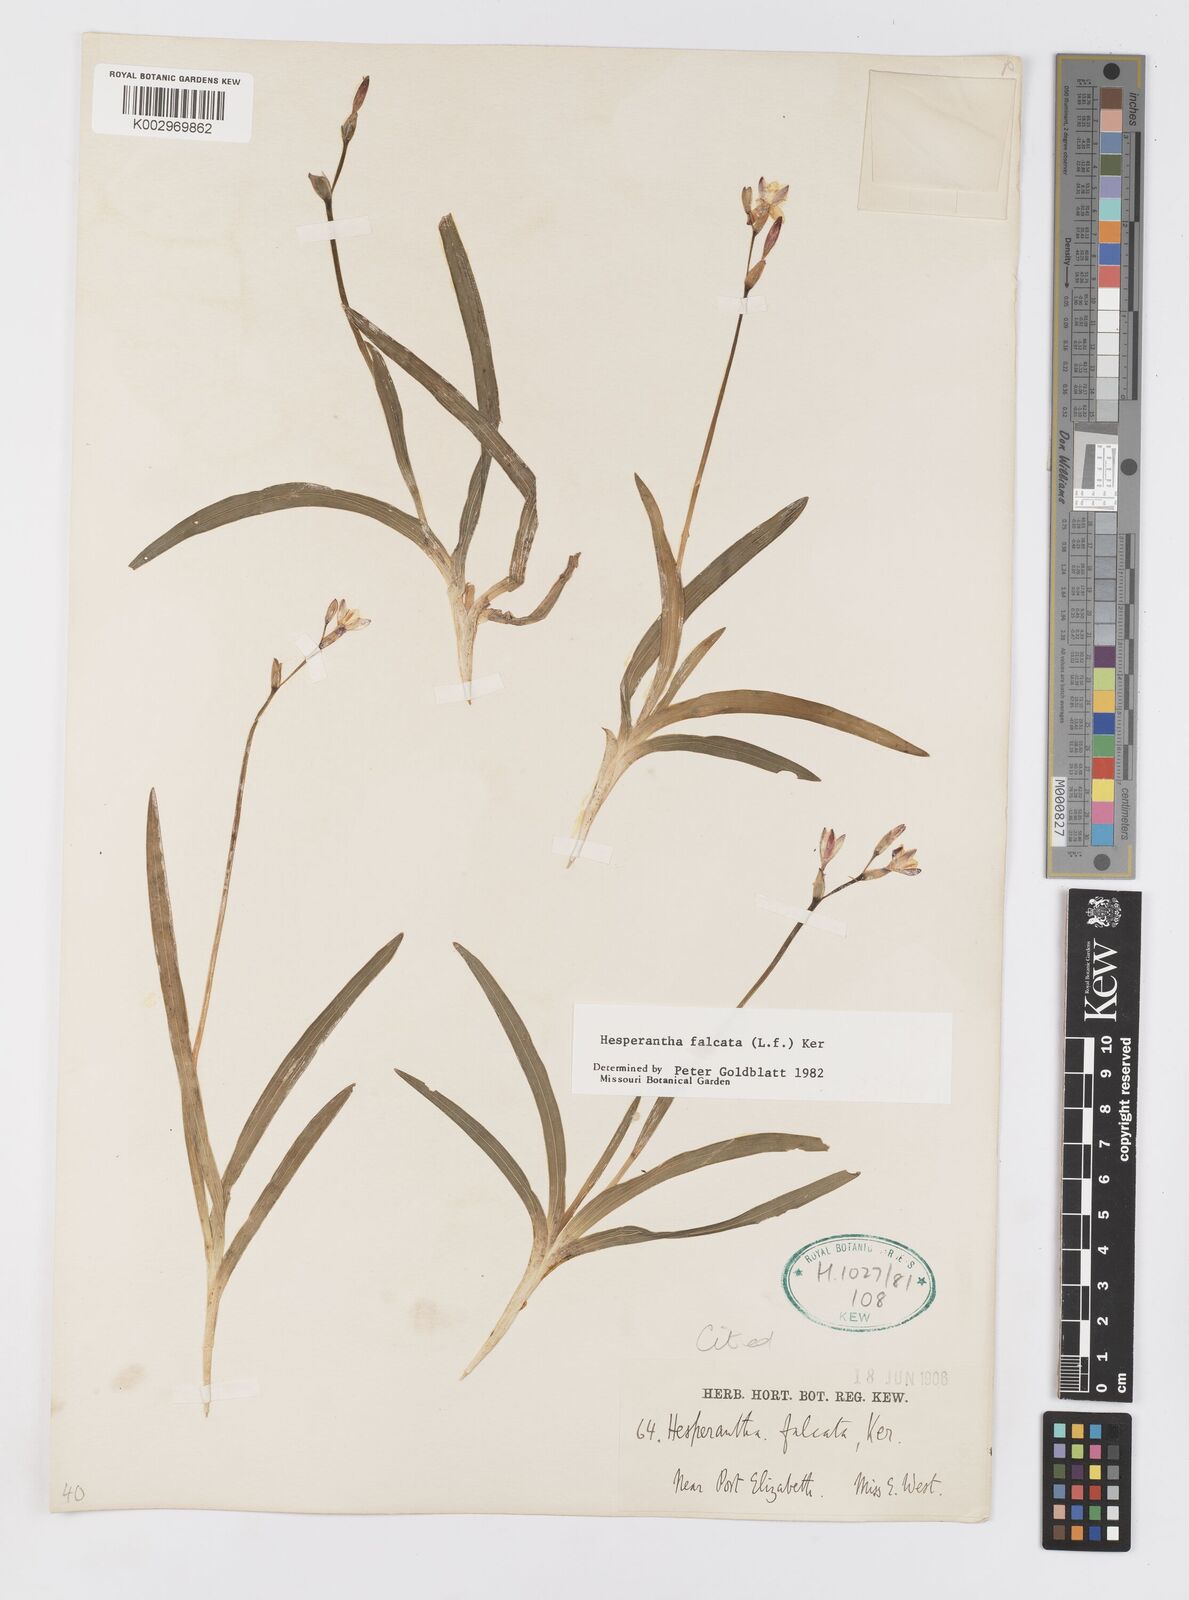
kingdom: Plantae
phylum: Tracheophyta
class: Liliopsida
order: Asparagales
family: Iridaceae
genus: Hesperantha
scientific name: Hesperantha falcata
